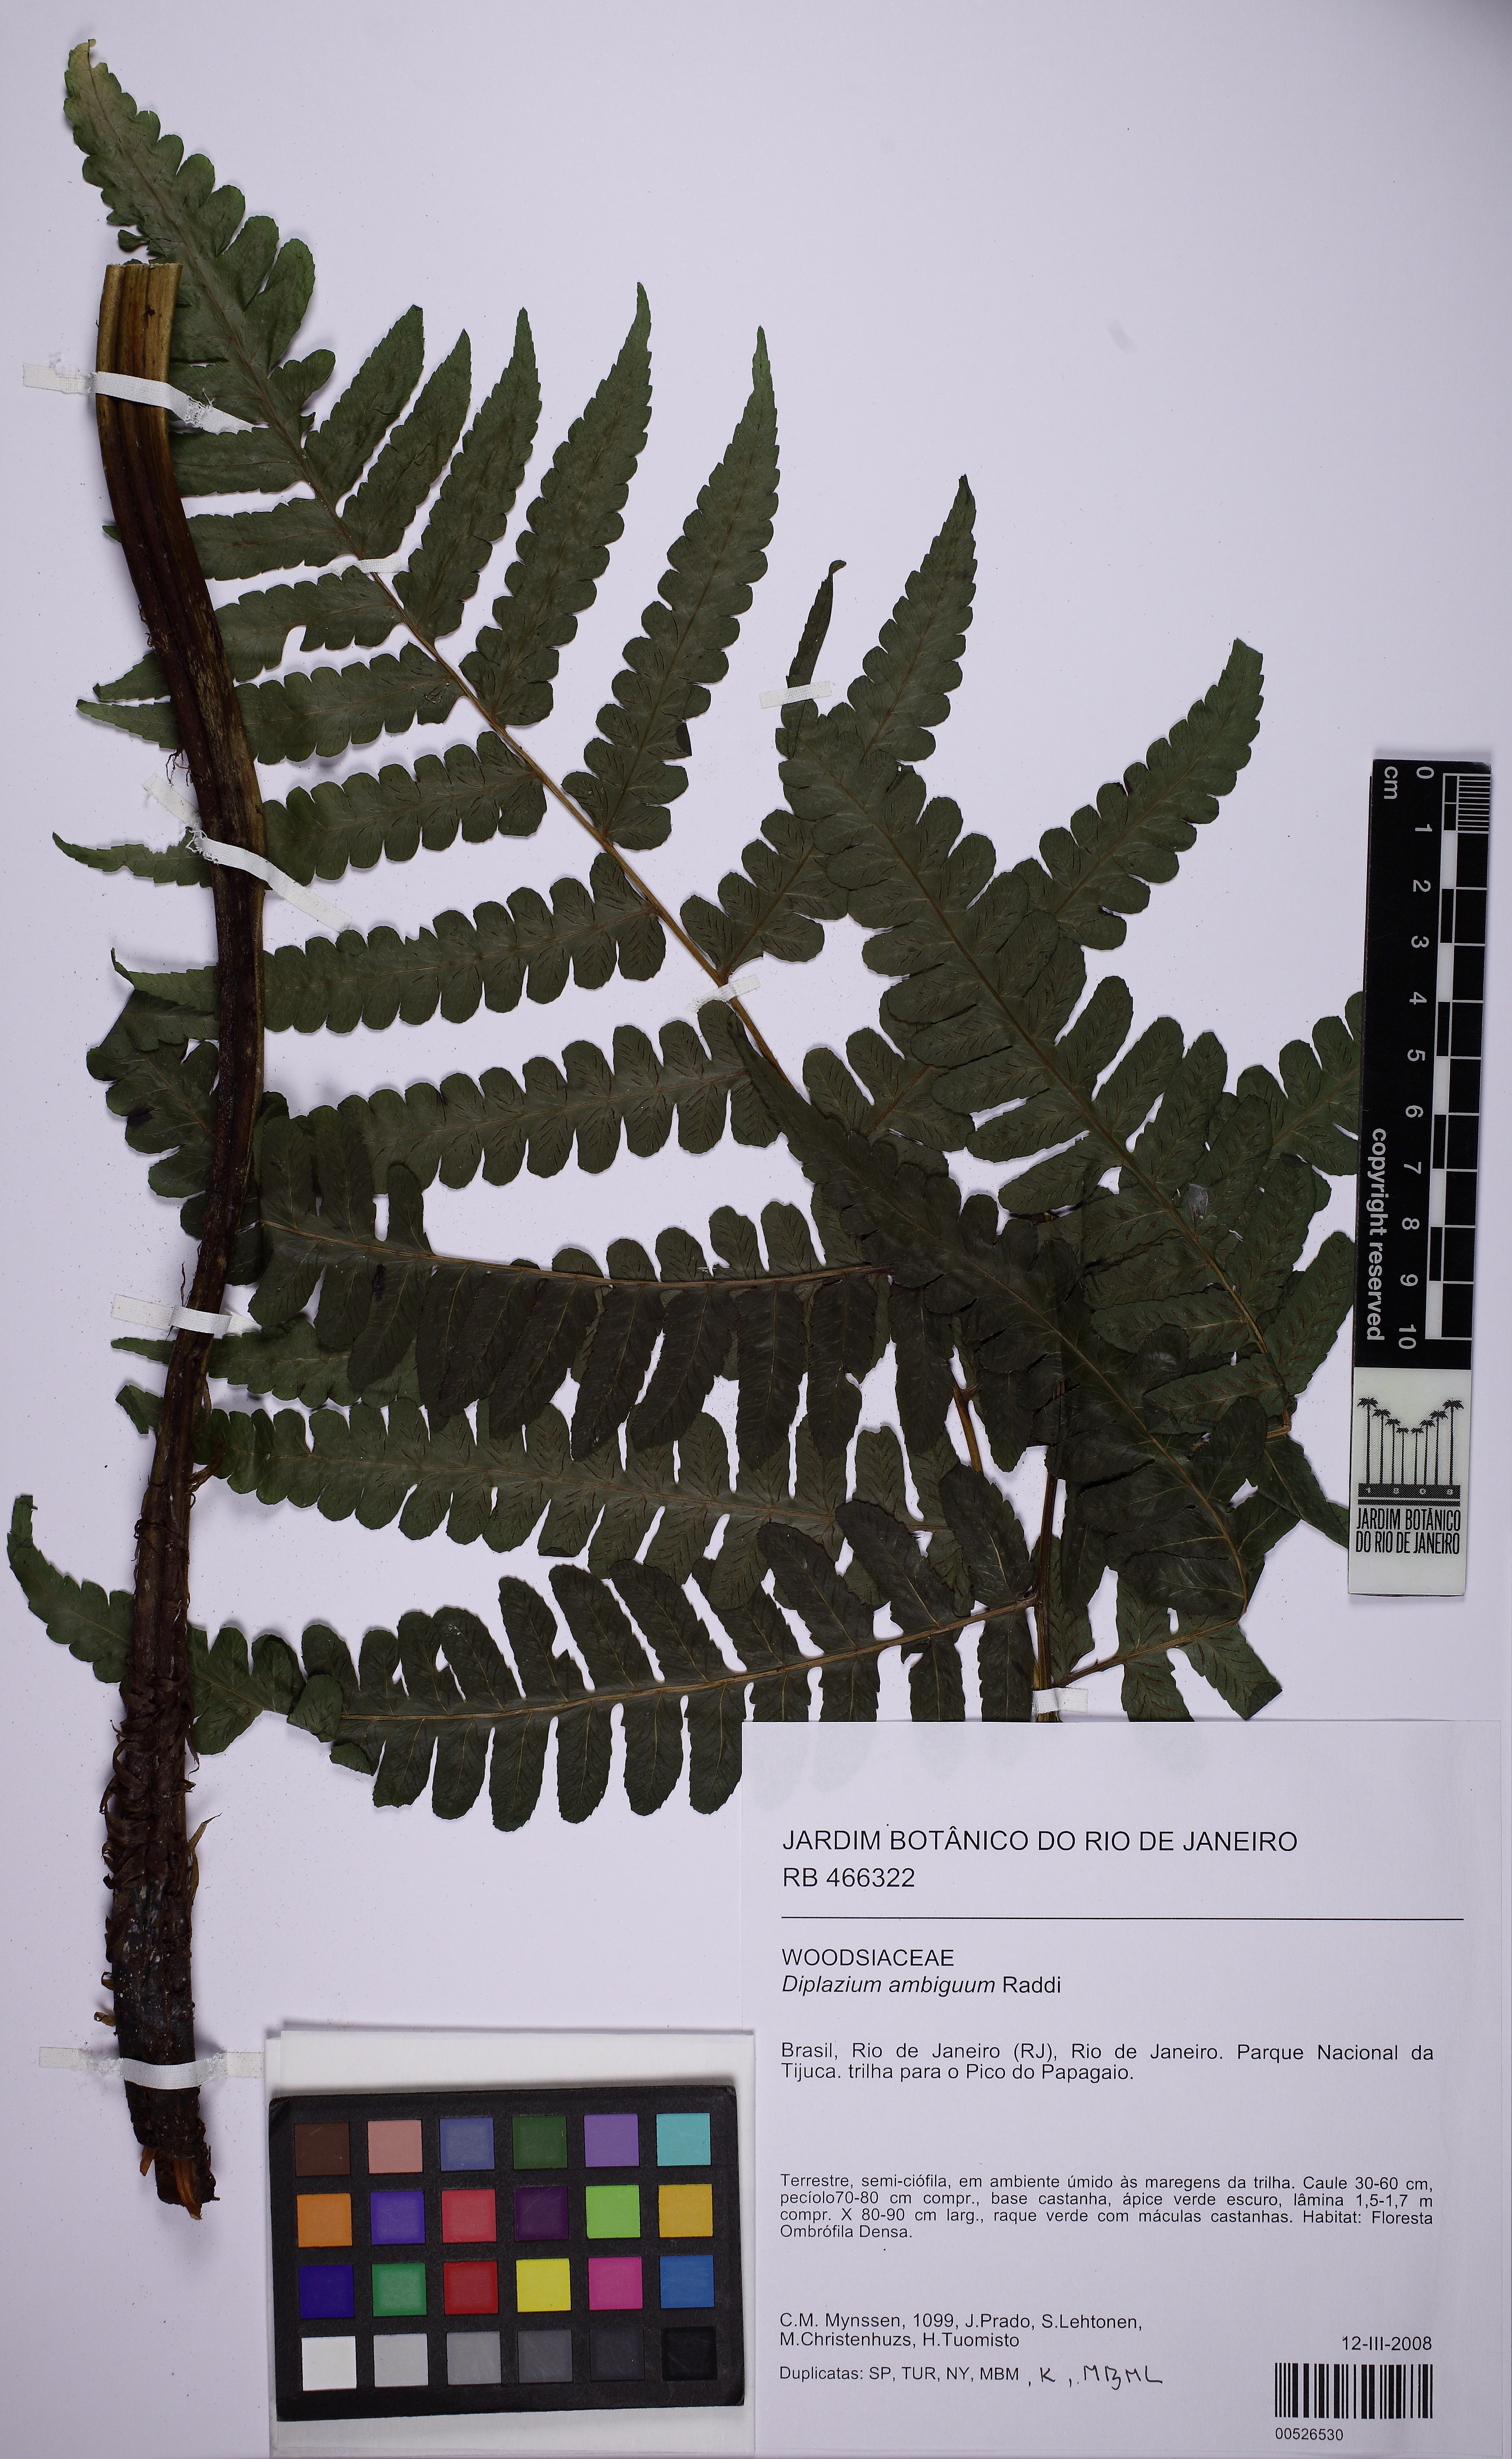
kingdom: Plantae
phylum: Tracheophyta
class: Polypodiopsida
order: Polypodiales
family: Athyriaceae
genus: Diplazium
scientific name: Diplazium ambiguum
